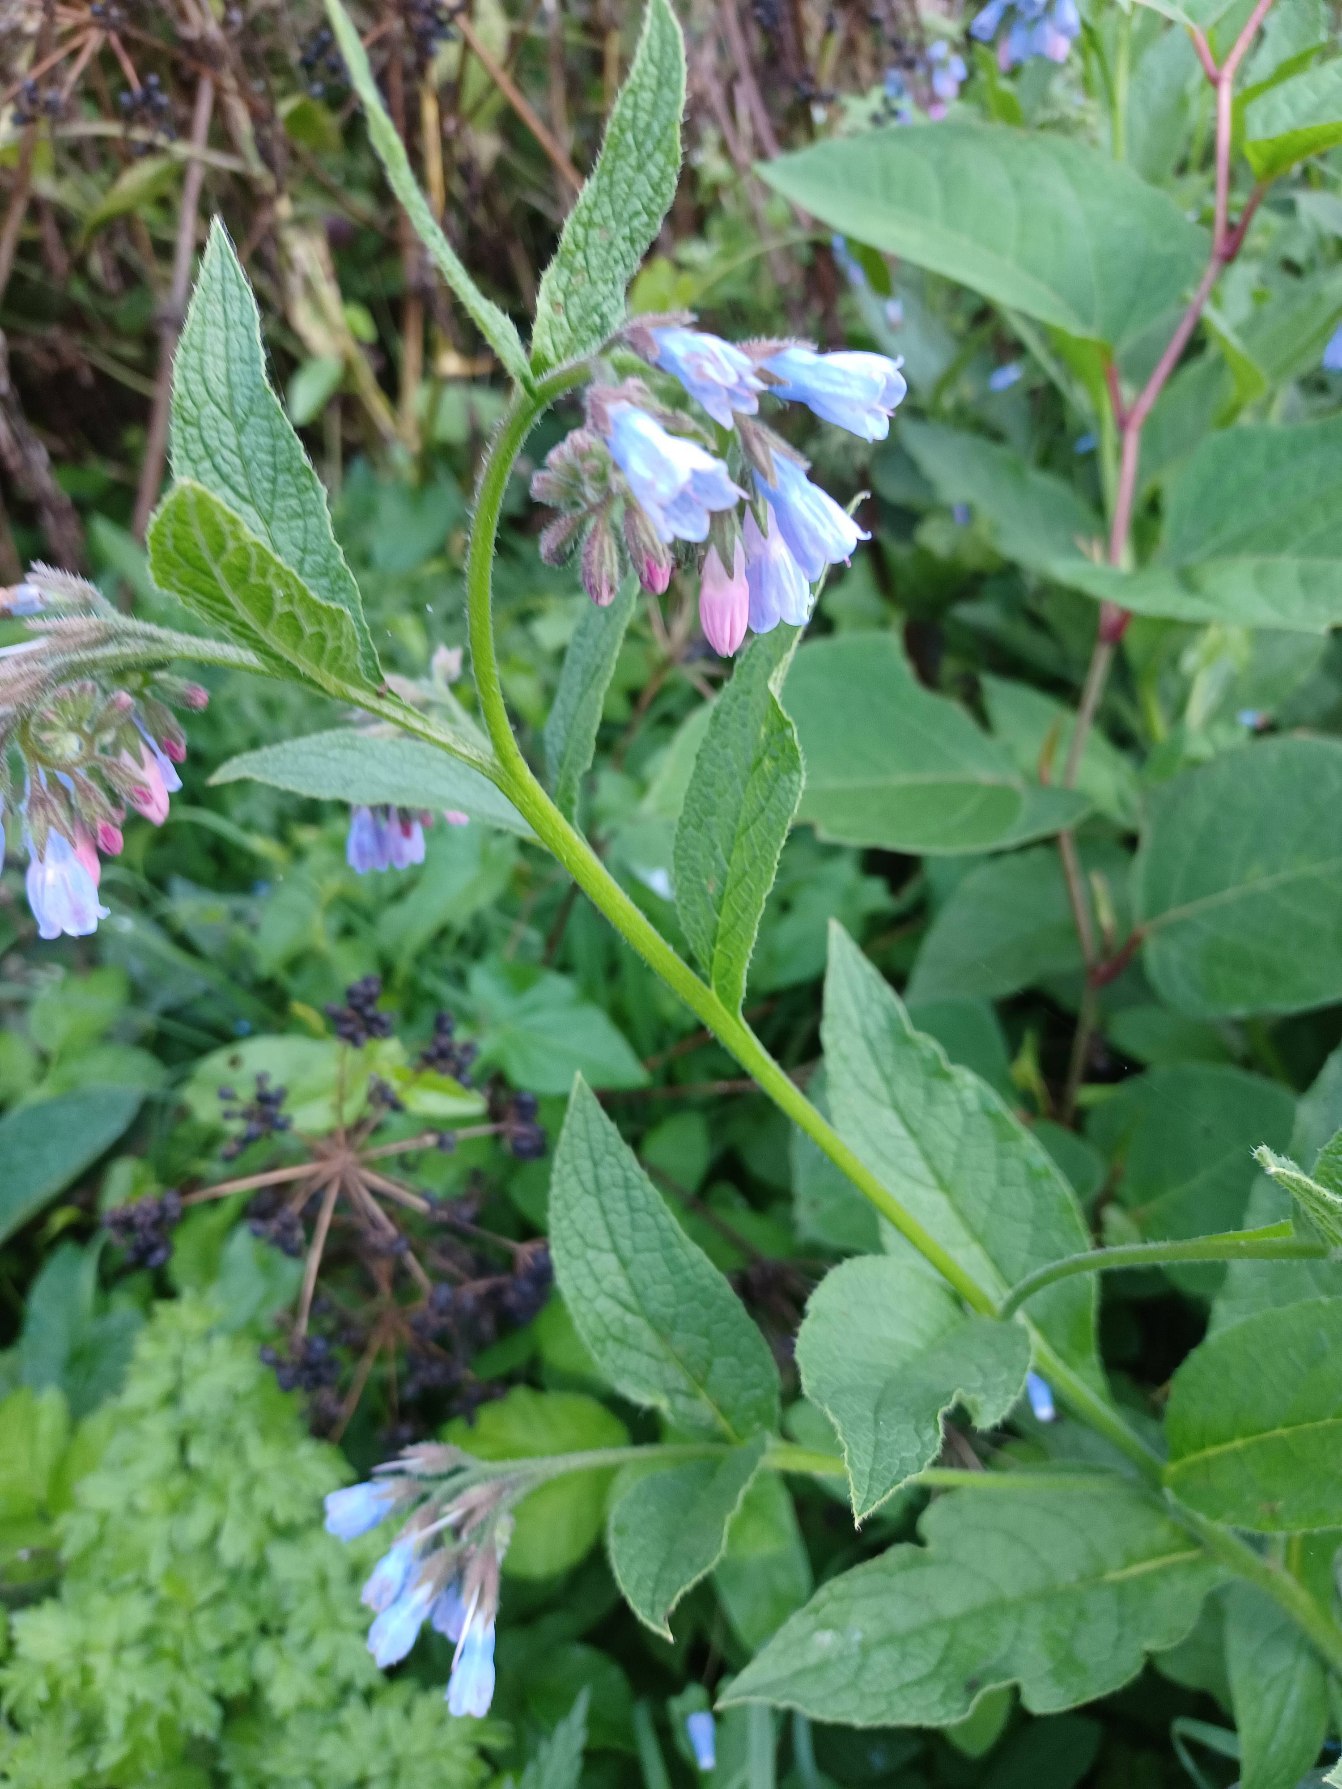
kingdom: Plantae
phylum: Tracheophyta
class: Magnoliopsida
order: Boraginales
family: Boraginaceae
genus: Symphytum
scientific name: Symphytum uplandicum
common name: Foder-kulsukker
